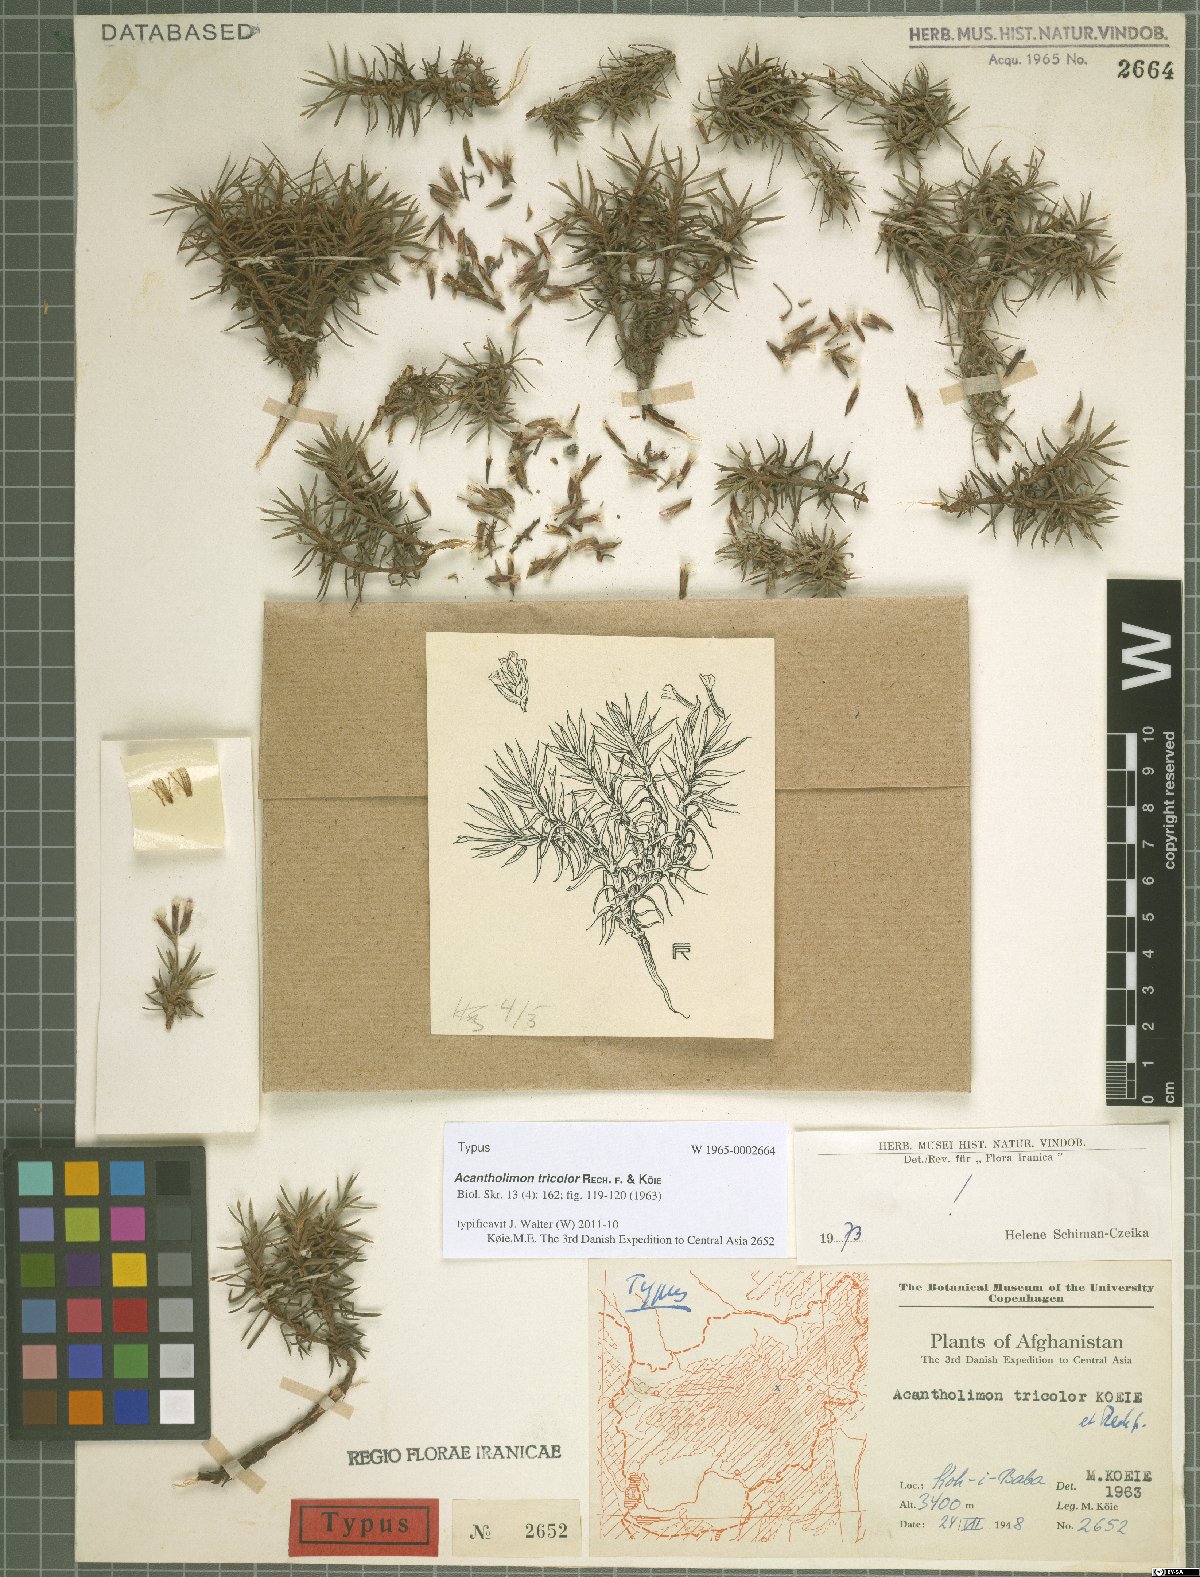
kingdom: Plantae
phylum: Tracheophyta
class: Magnoliopsida
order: Caryophyllales
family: Plumbaginaceae
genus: Acantholimon
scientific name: Acantholimon tricolor
